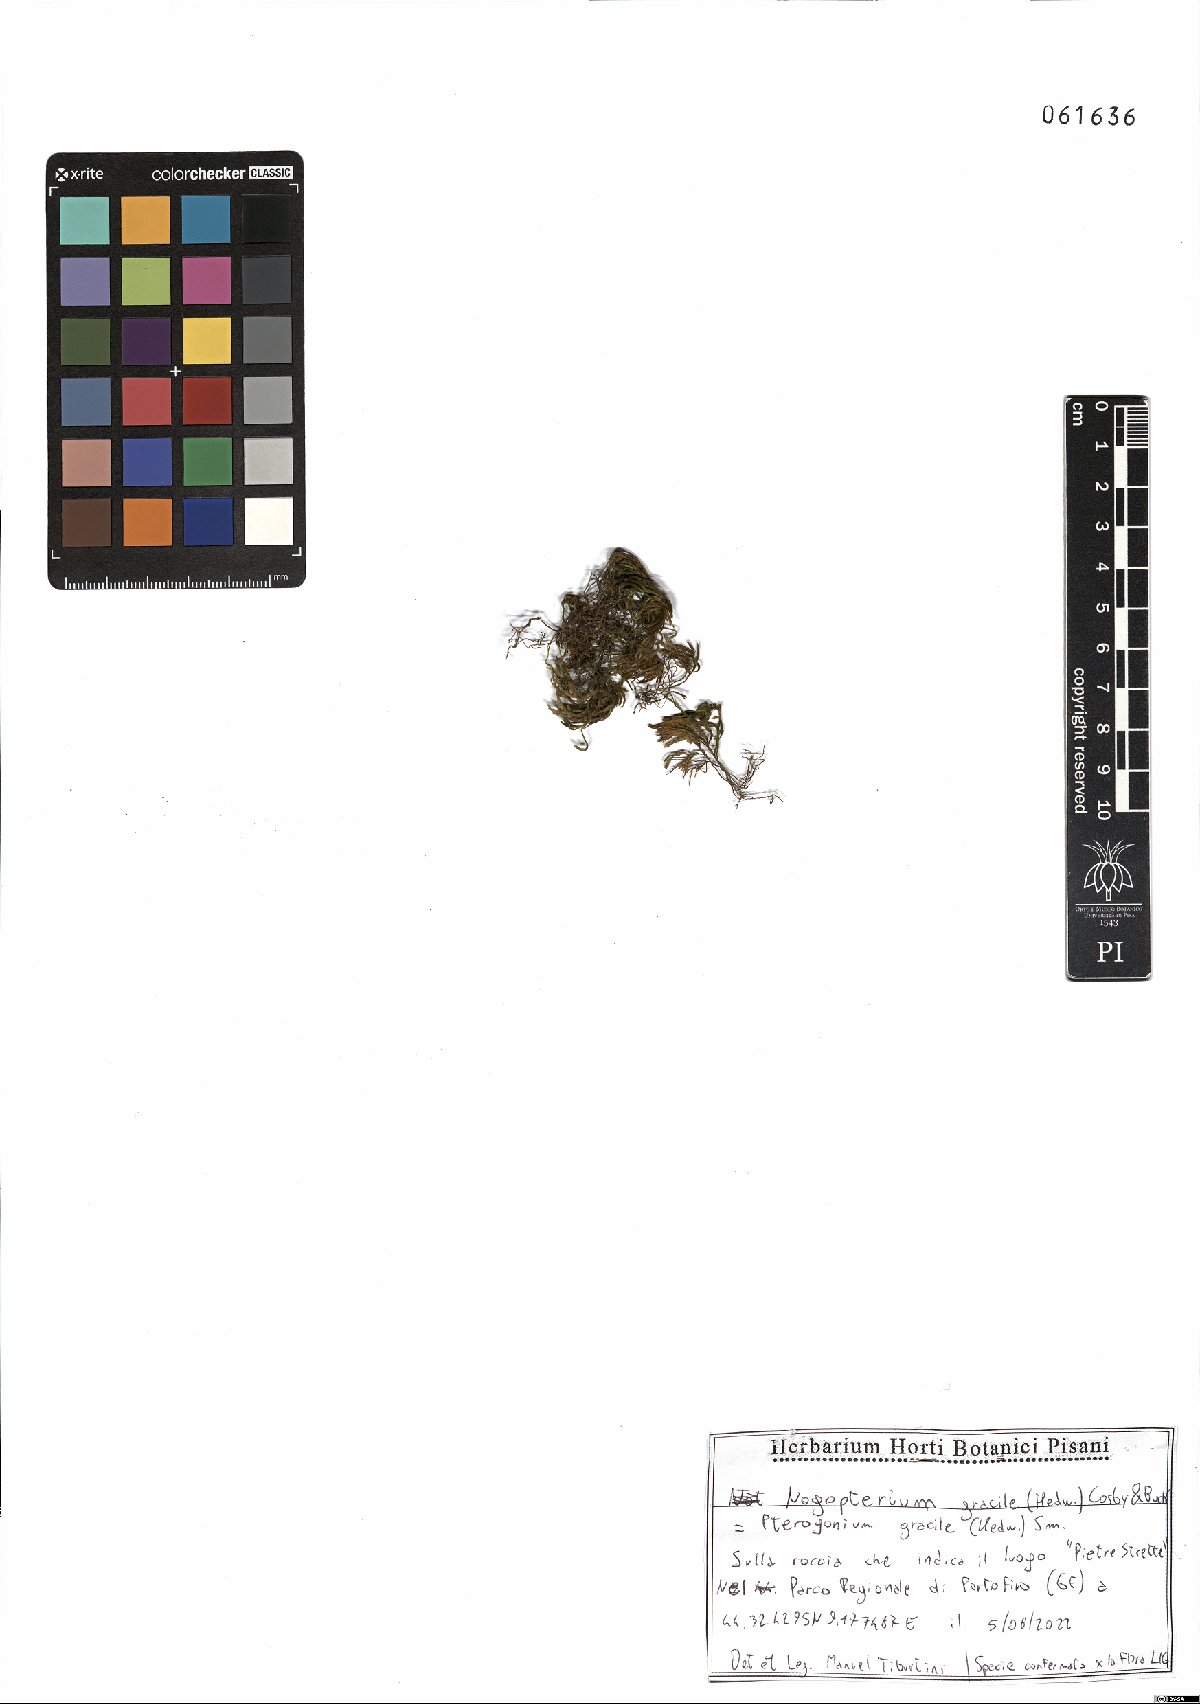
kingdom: Plantae
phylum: Bryophyta
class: Bryopsida
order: Hypnales
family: Lembophyllaceae
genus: Nogopterium
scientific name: Nogopterium gracile
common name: Bird's-foot wing-moss
